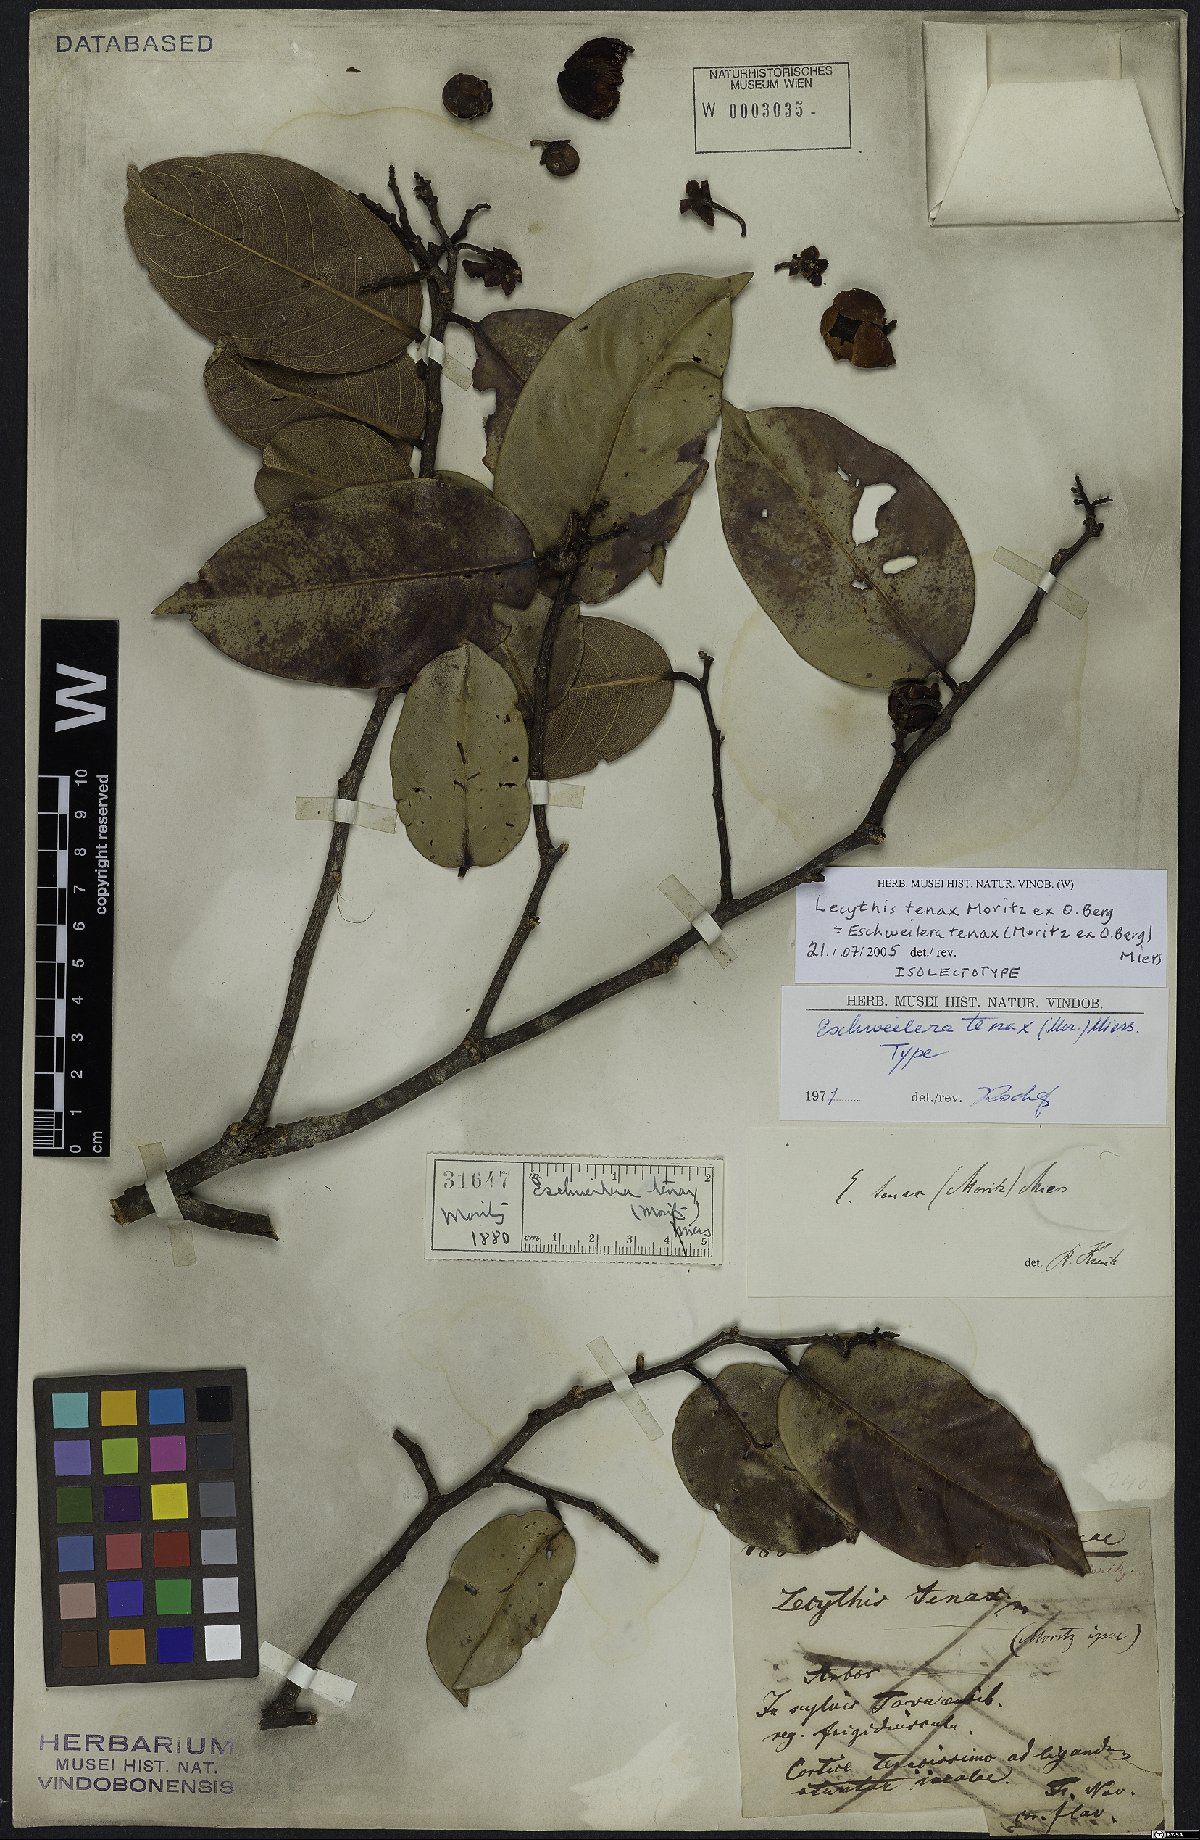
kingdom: Plantae
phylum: Tracheophyta
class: Magnoliopsida
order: Ericales
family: Lecythidaceae
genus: Eschweilera
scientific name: Eschweilera tenax
